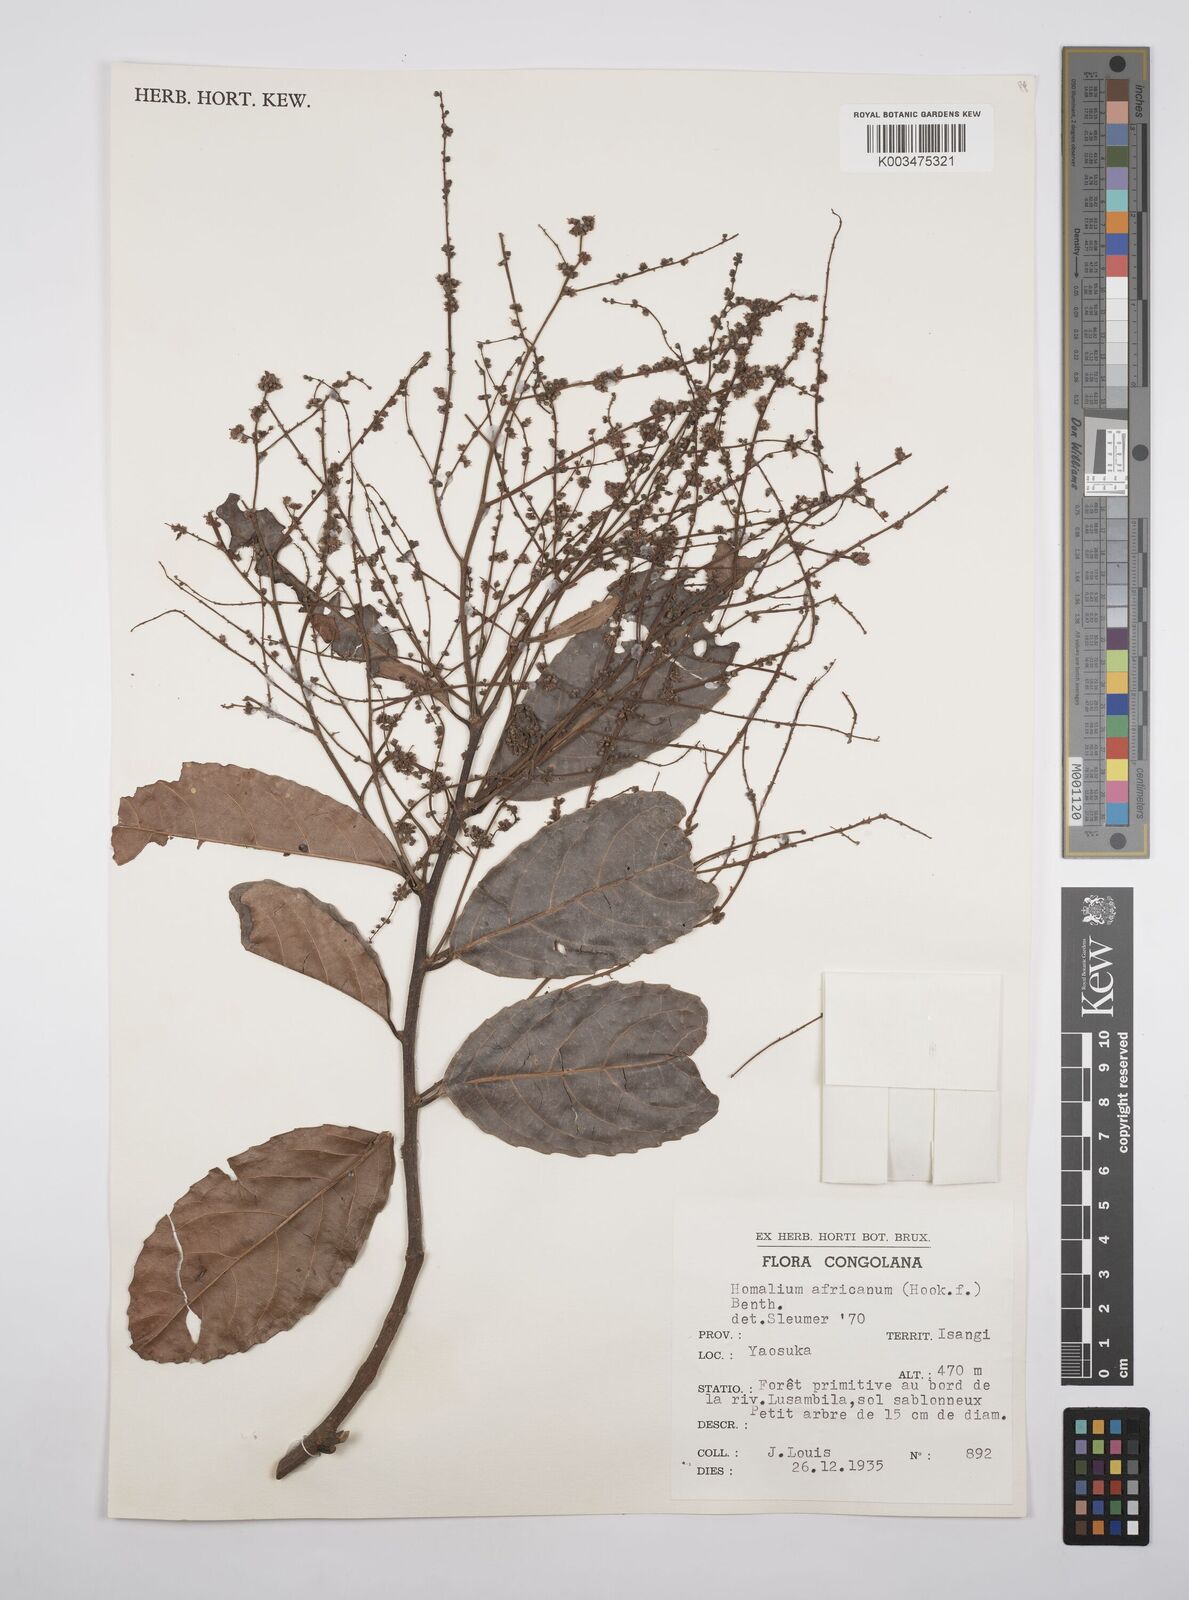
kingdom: Plantae
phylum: Tracheophyta
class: Magnoliopsida
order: Malpighiales
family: Salicaceae
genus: Homalium
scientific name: Homalium africanum
